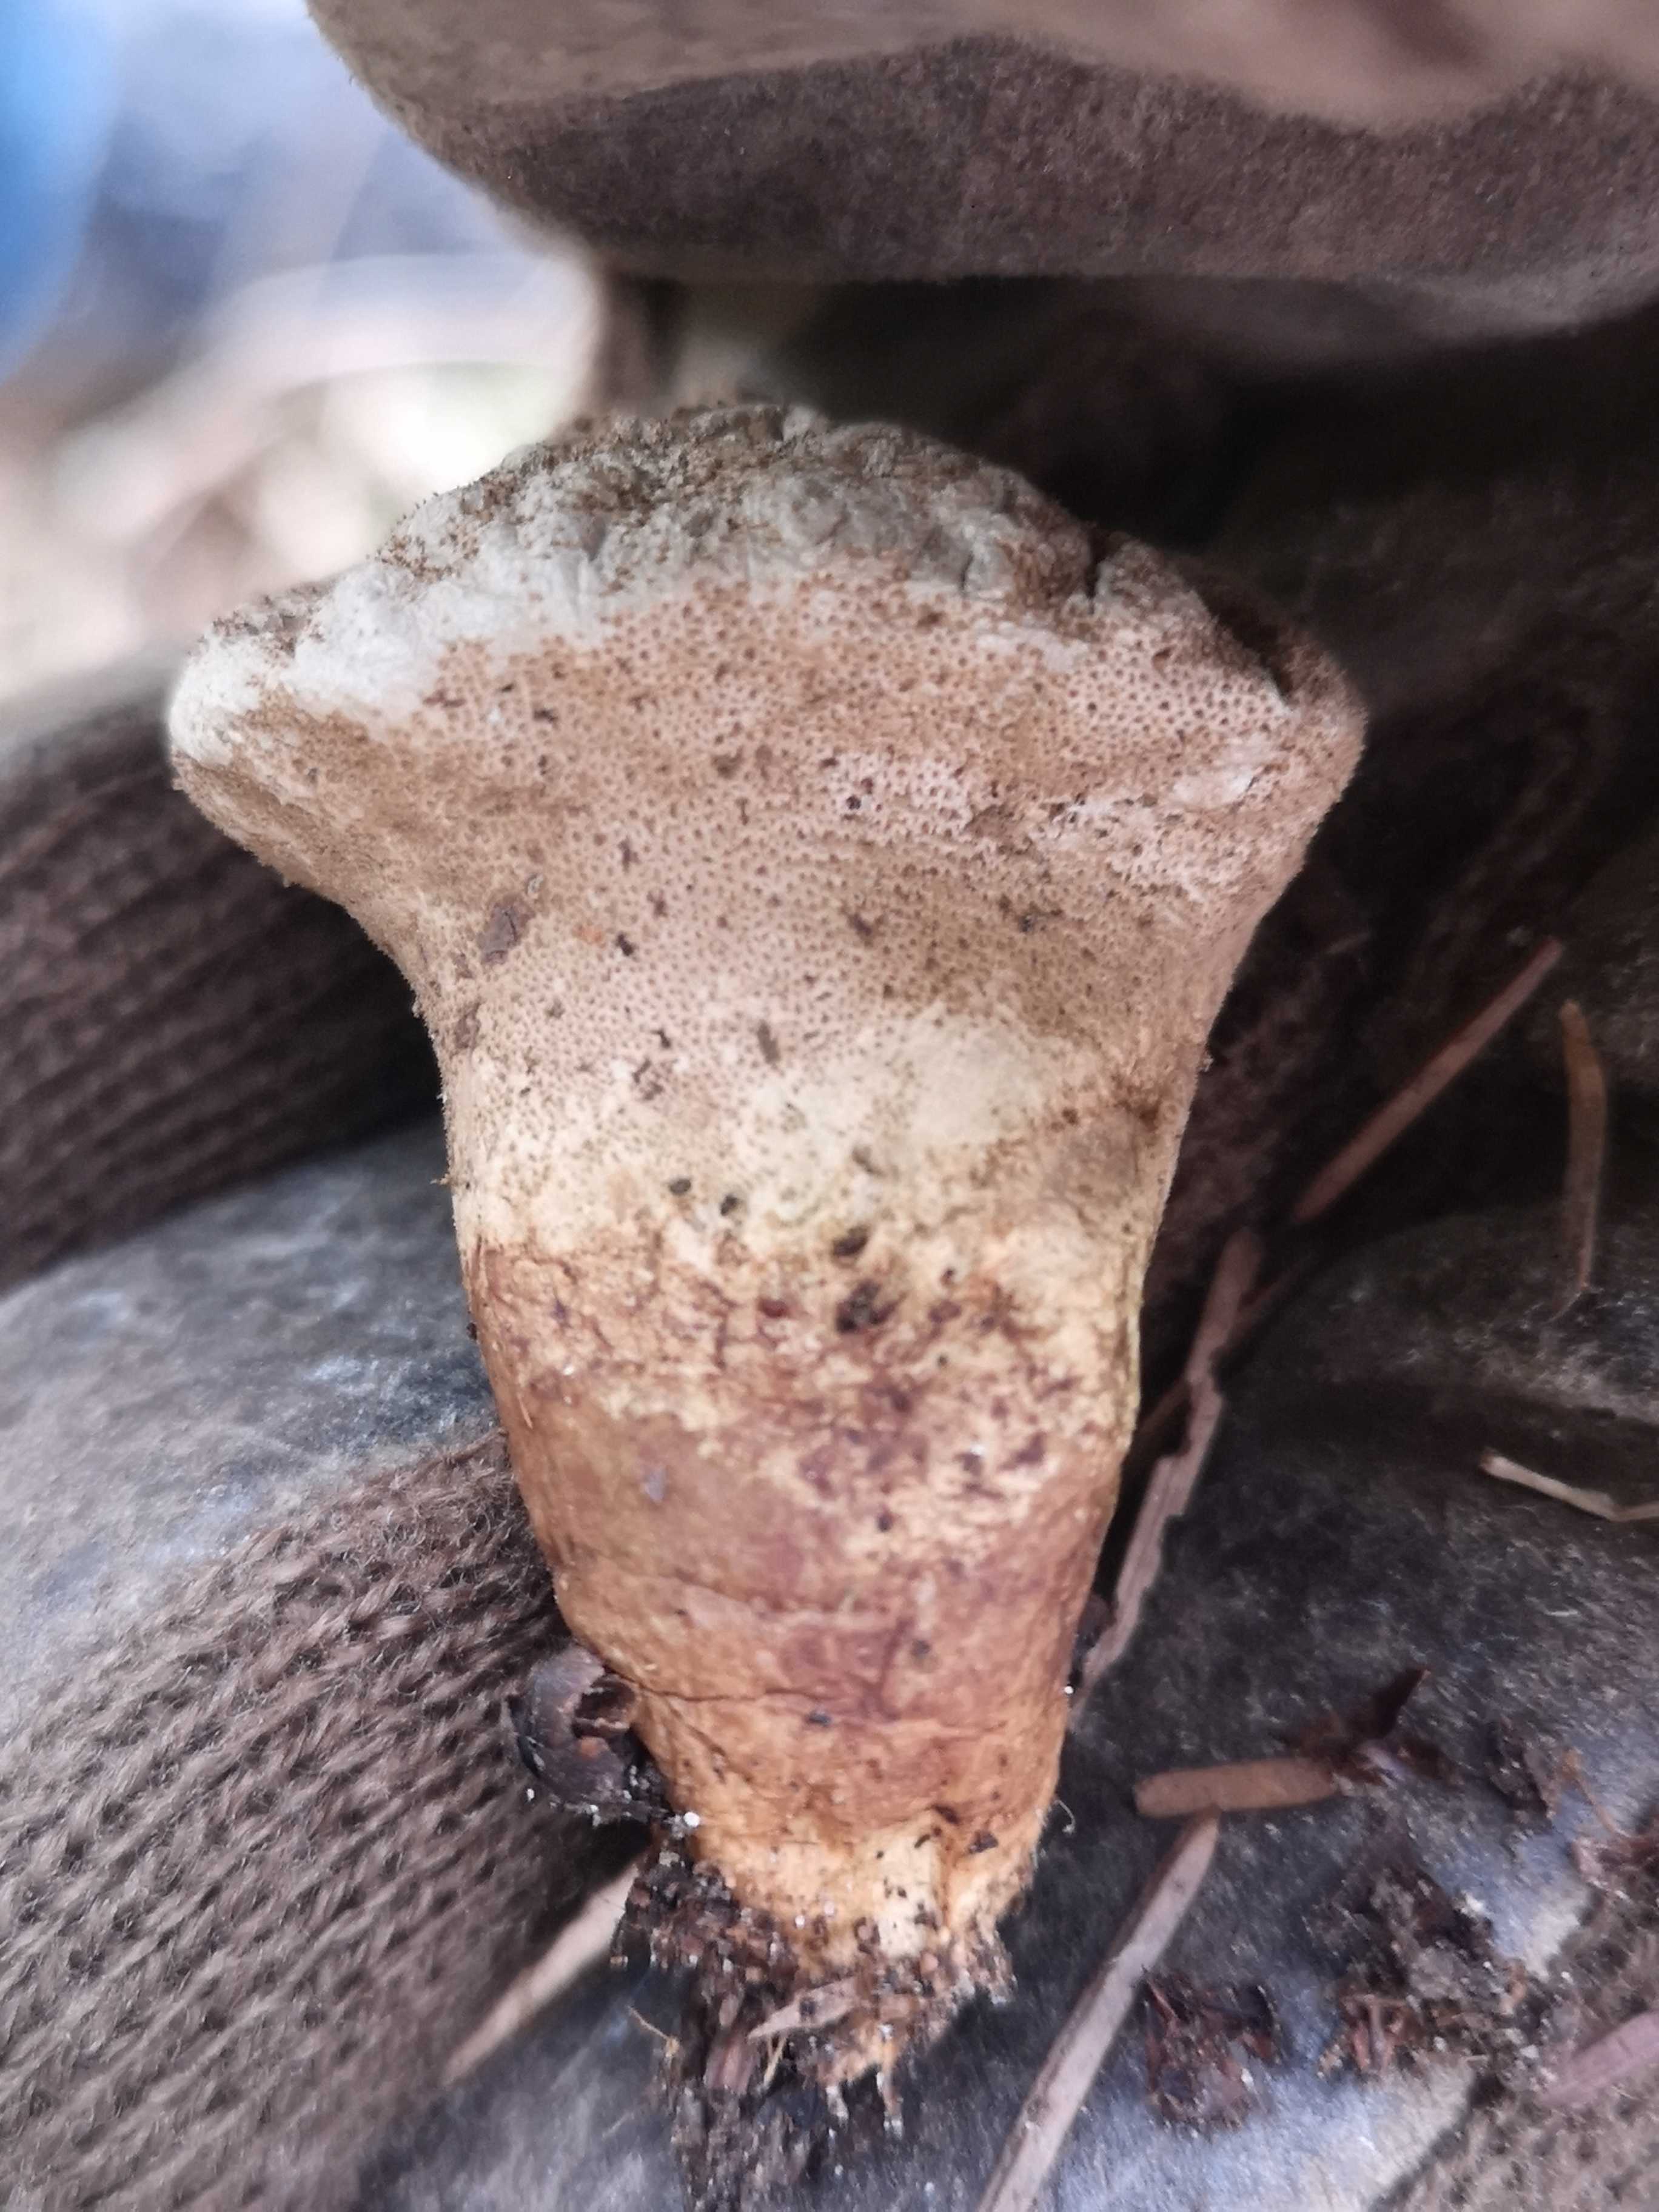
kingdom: Fungi
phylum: Basidiomycota
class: Agaricomycetes
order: Agaricales
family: Lycoperdaceae
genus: Lycoperdon
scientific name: Lycoperdon perlatum
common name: krystal-støvbold
